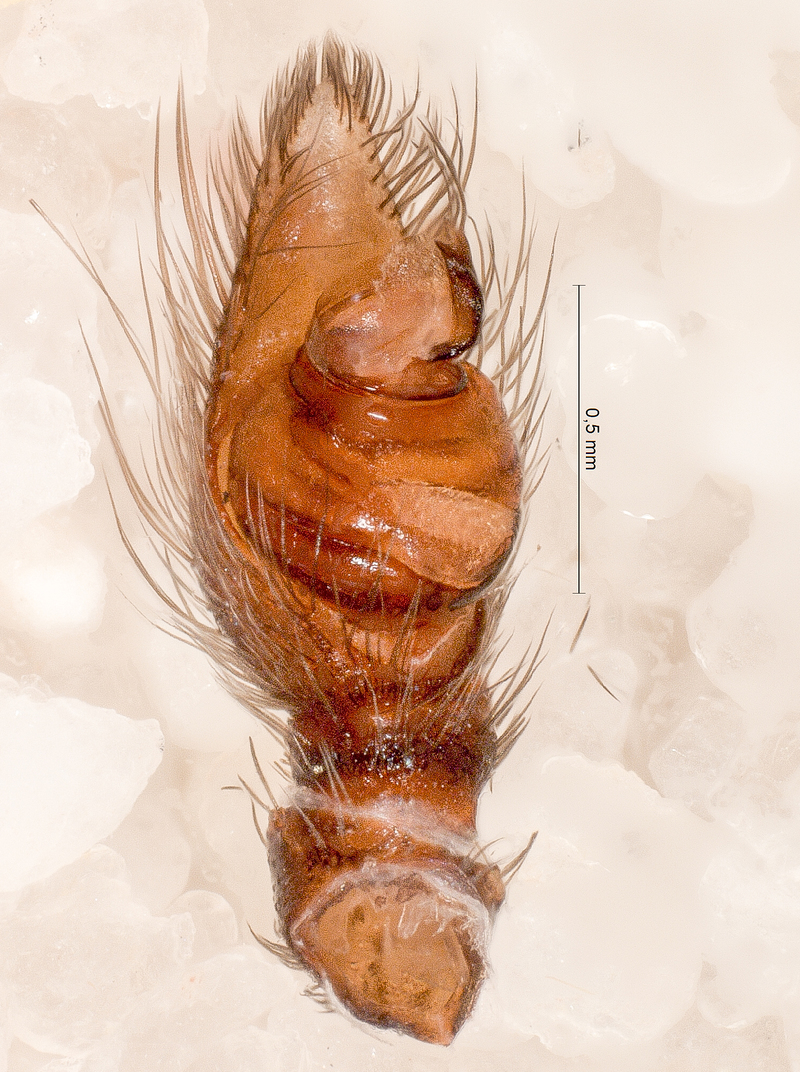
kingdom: Animalia
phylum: Arthropoda
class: Arachnida
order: Araneae
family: Eresidae
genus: Eresus
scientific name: Eresus kollari
